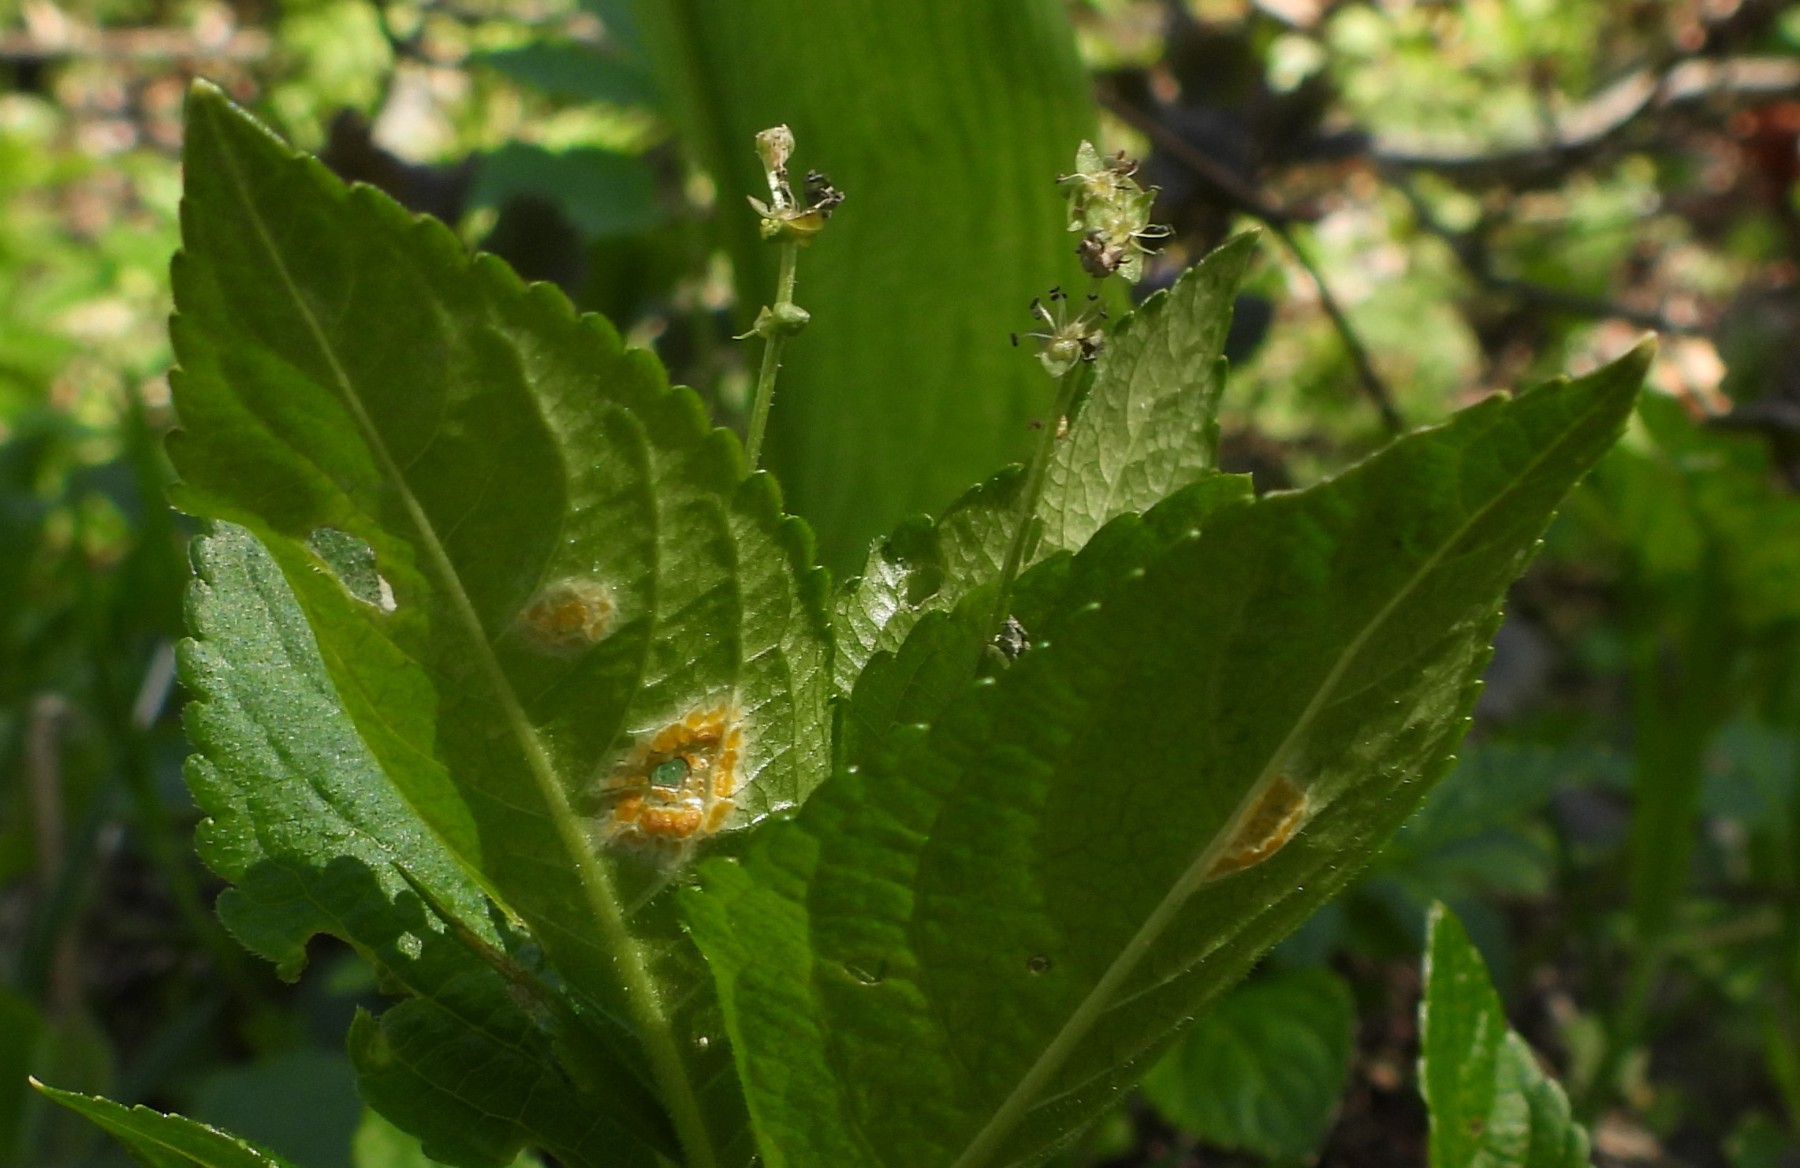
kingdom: Fungi
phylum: Basidiomycota
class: Pucciniomycetes
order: Pucciniales
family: Melampsoraceae
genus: Melampsora
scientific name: Melampsora populnea
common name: poppel-skorperust
